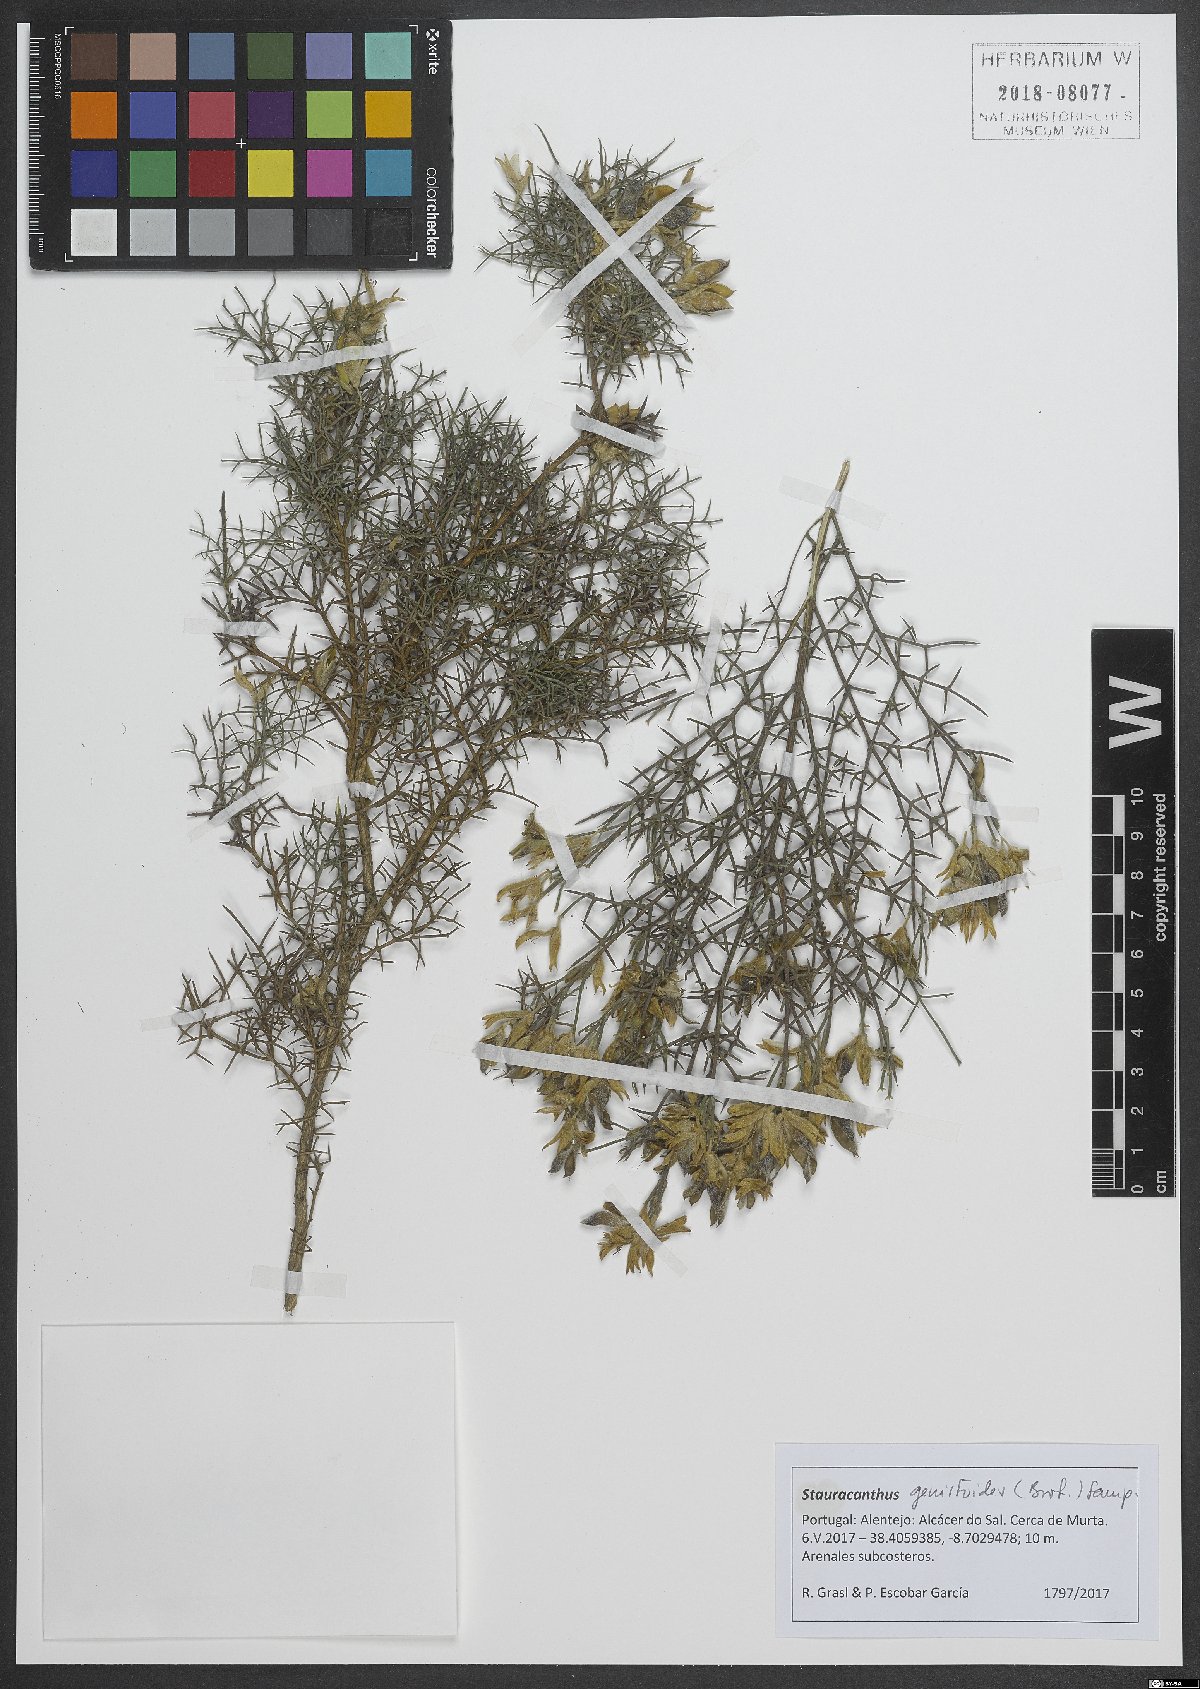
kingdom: Plantae
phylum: Tracheophyta
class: Magnoliopsida
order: Fabales
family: Fabaceae
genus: Stauracanthus
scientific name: Stauracanthus genistoides
